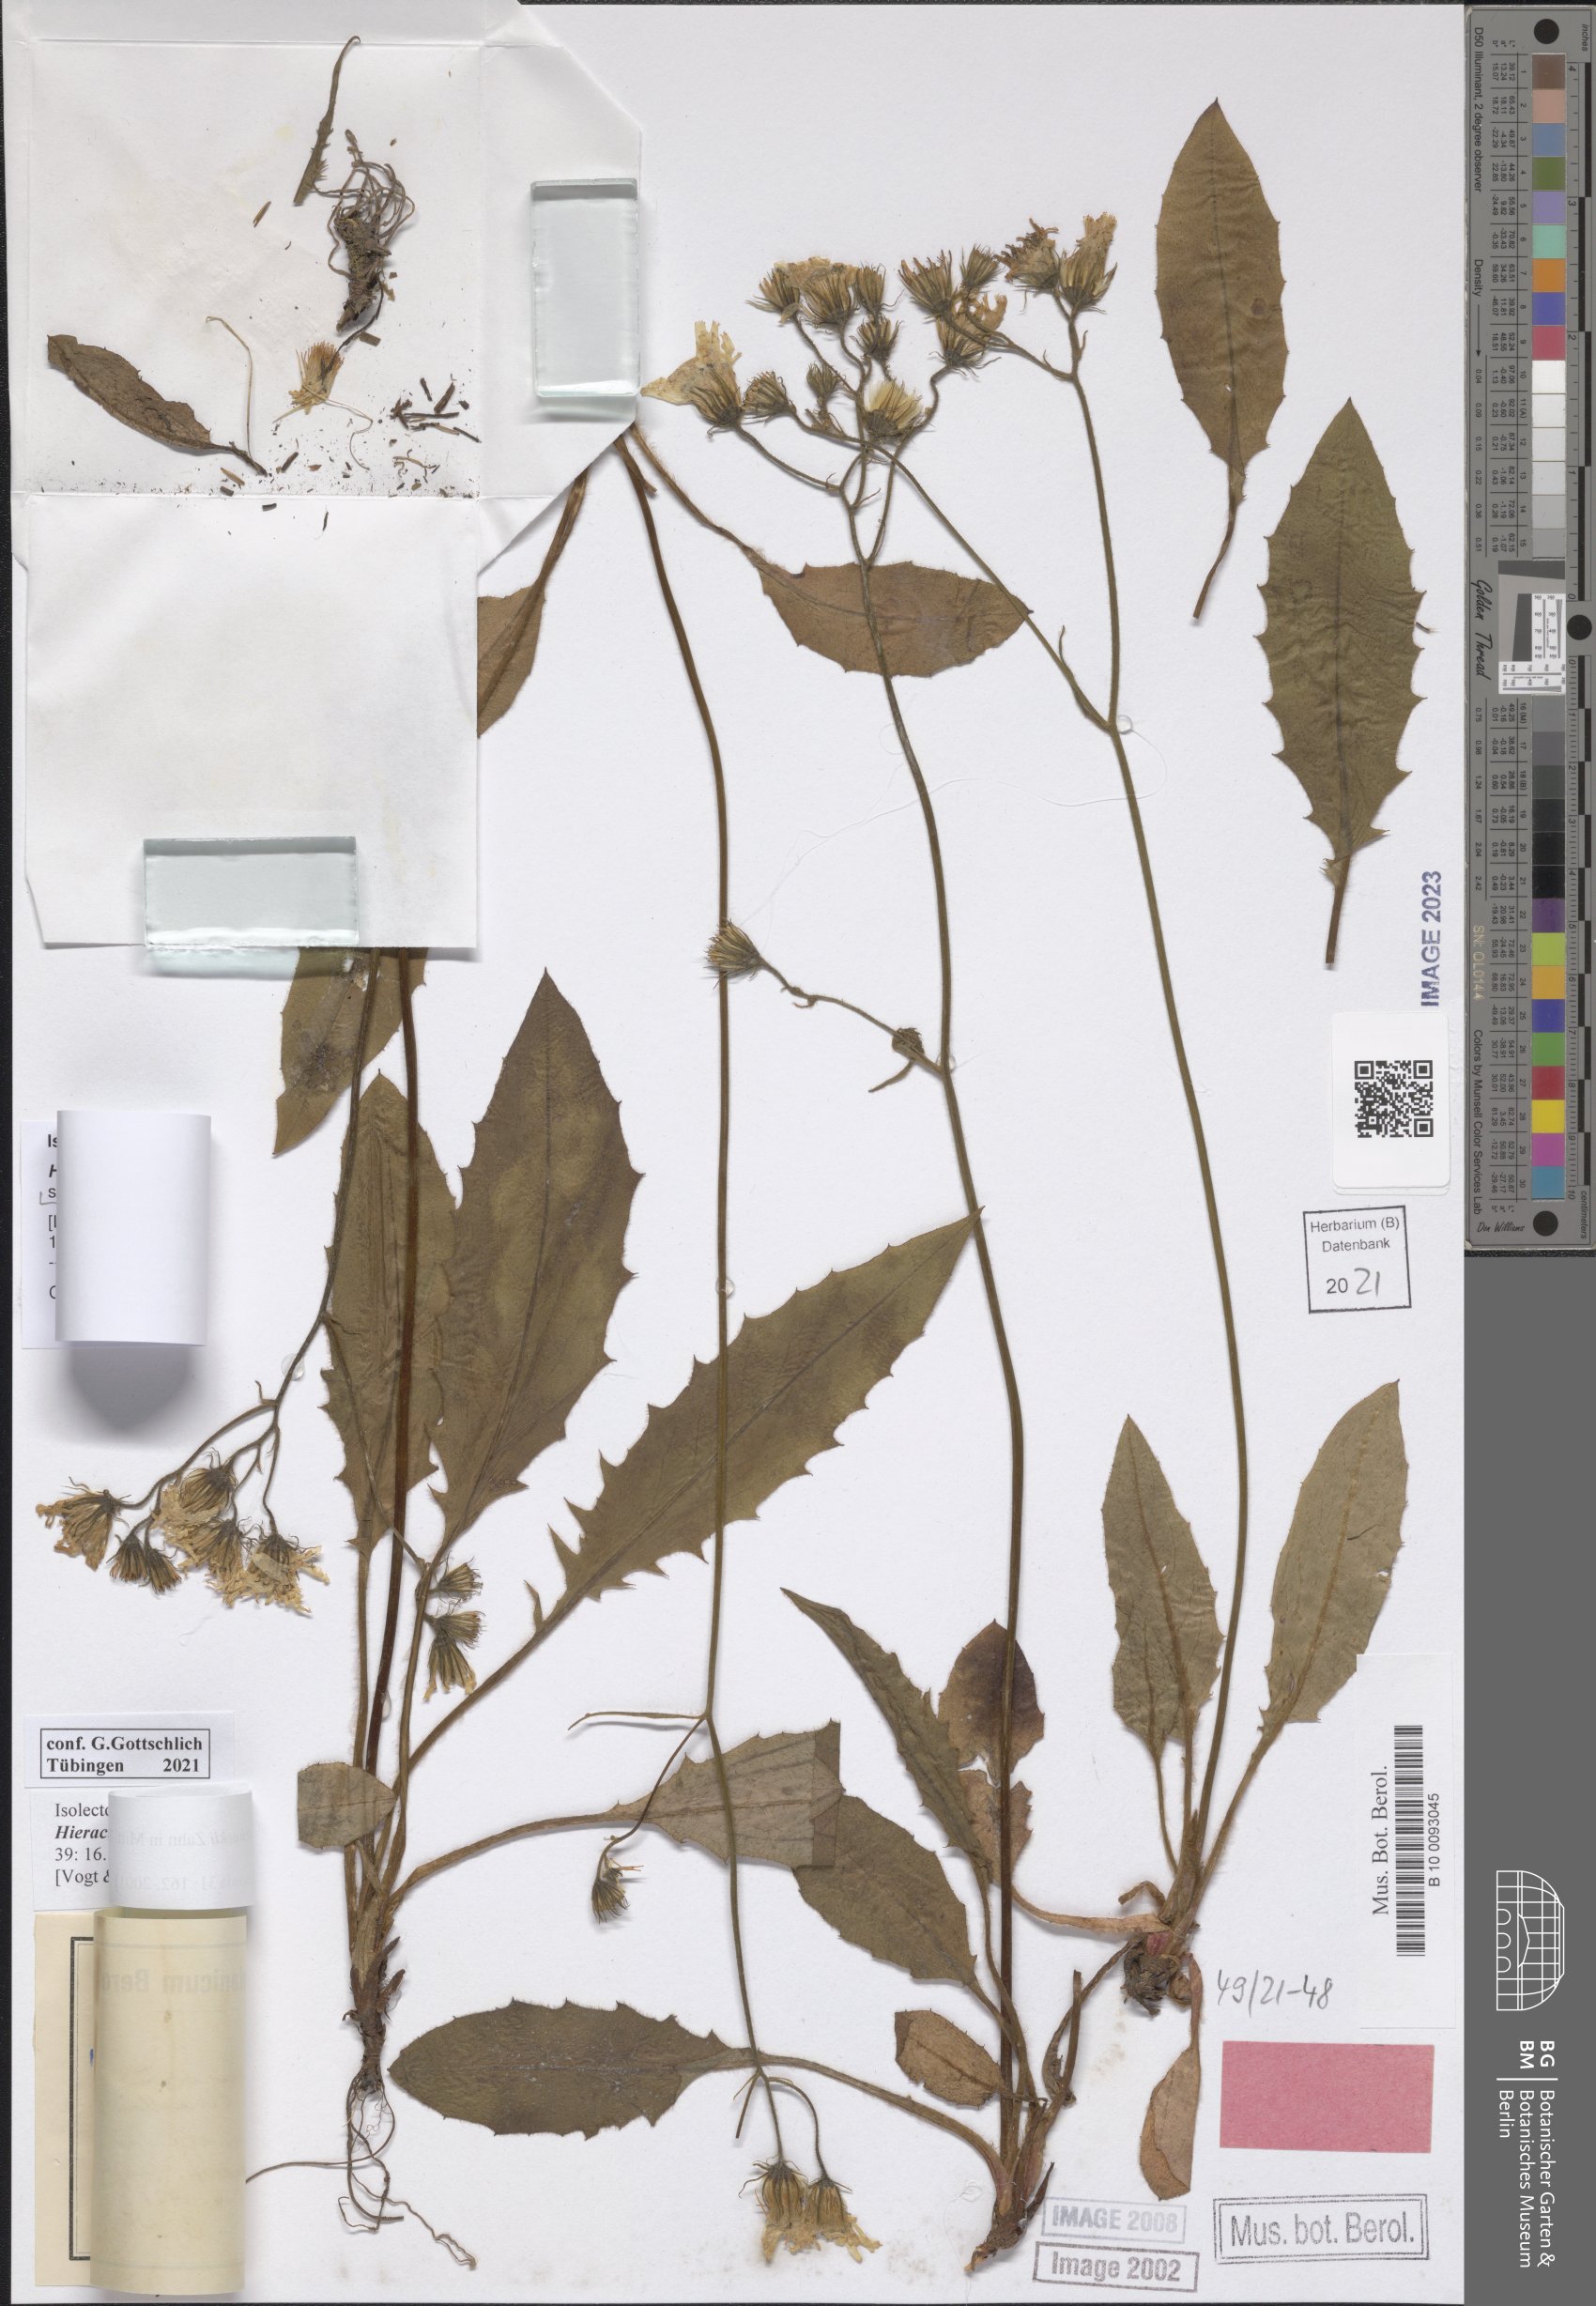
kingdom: Plantae
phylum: Tracheophyta
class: Magnoliopsida
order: Asterales
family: Asteraceae
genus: Hieracium
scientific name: Hieracium murorum
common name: Wall hawkweed
